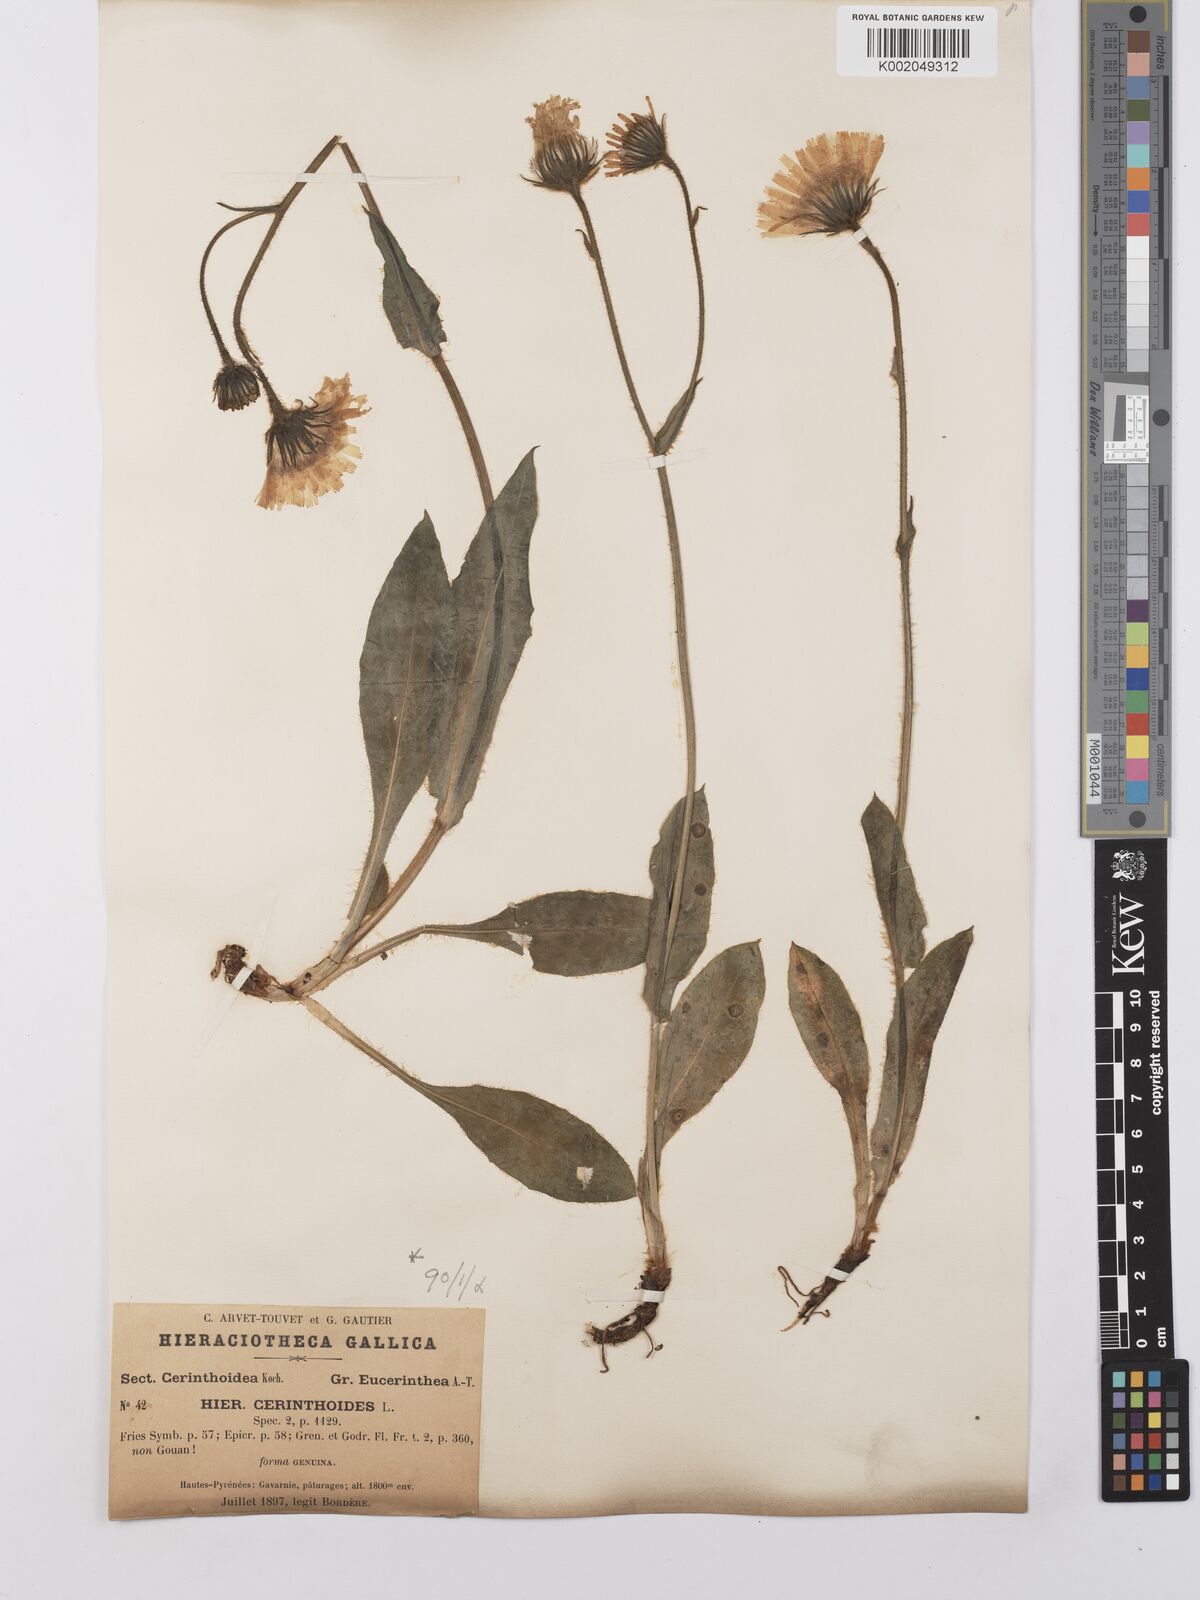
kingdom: Plantae
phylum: Tracheophyta
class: Magnoliopsida
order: Asterales
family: Asteraceae
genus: Hieracium
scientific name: Hieracium cerinthoides
